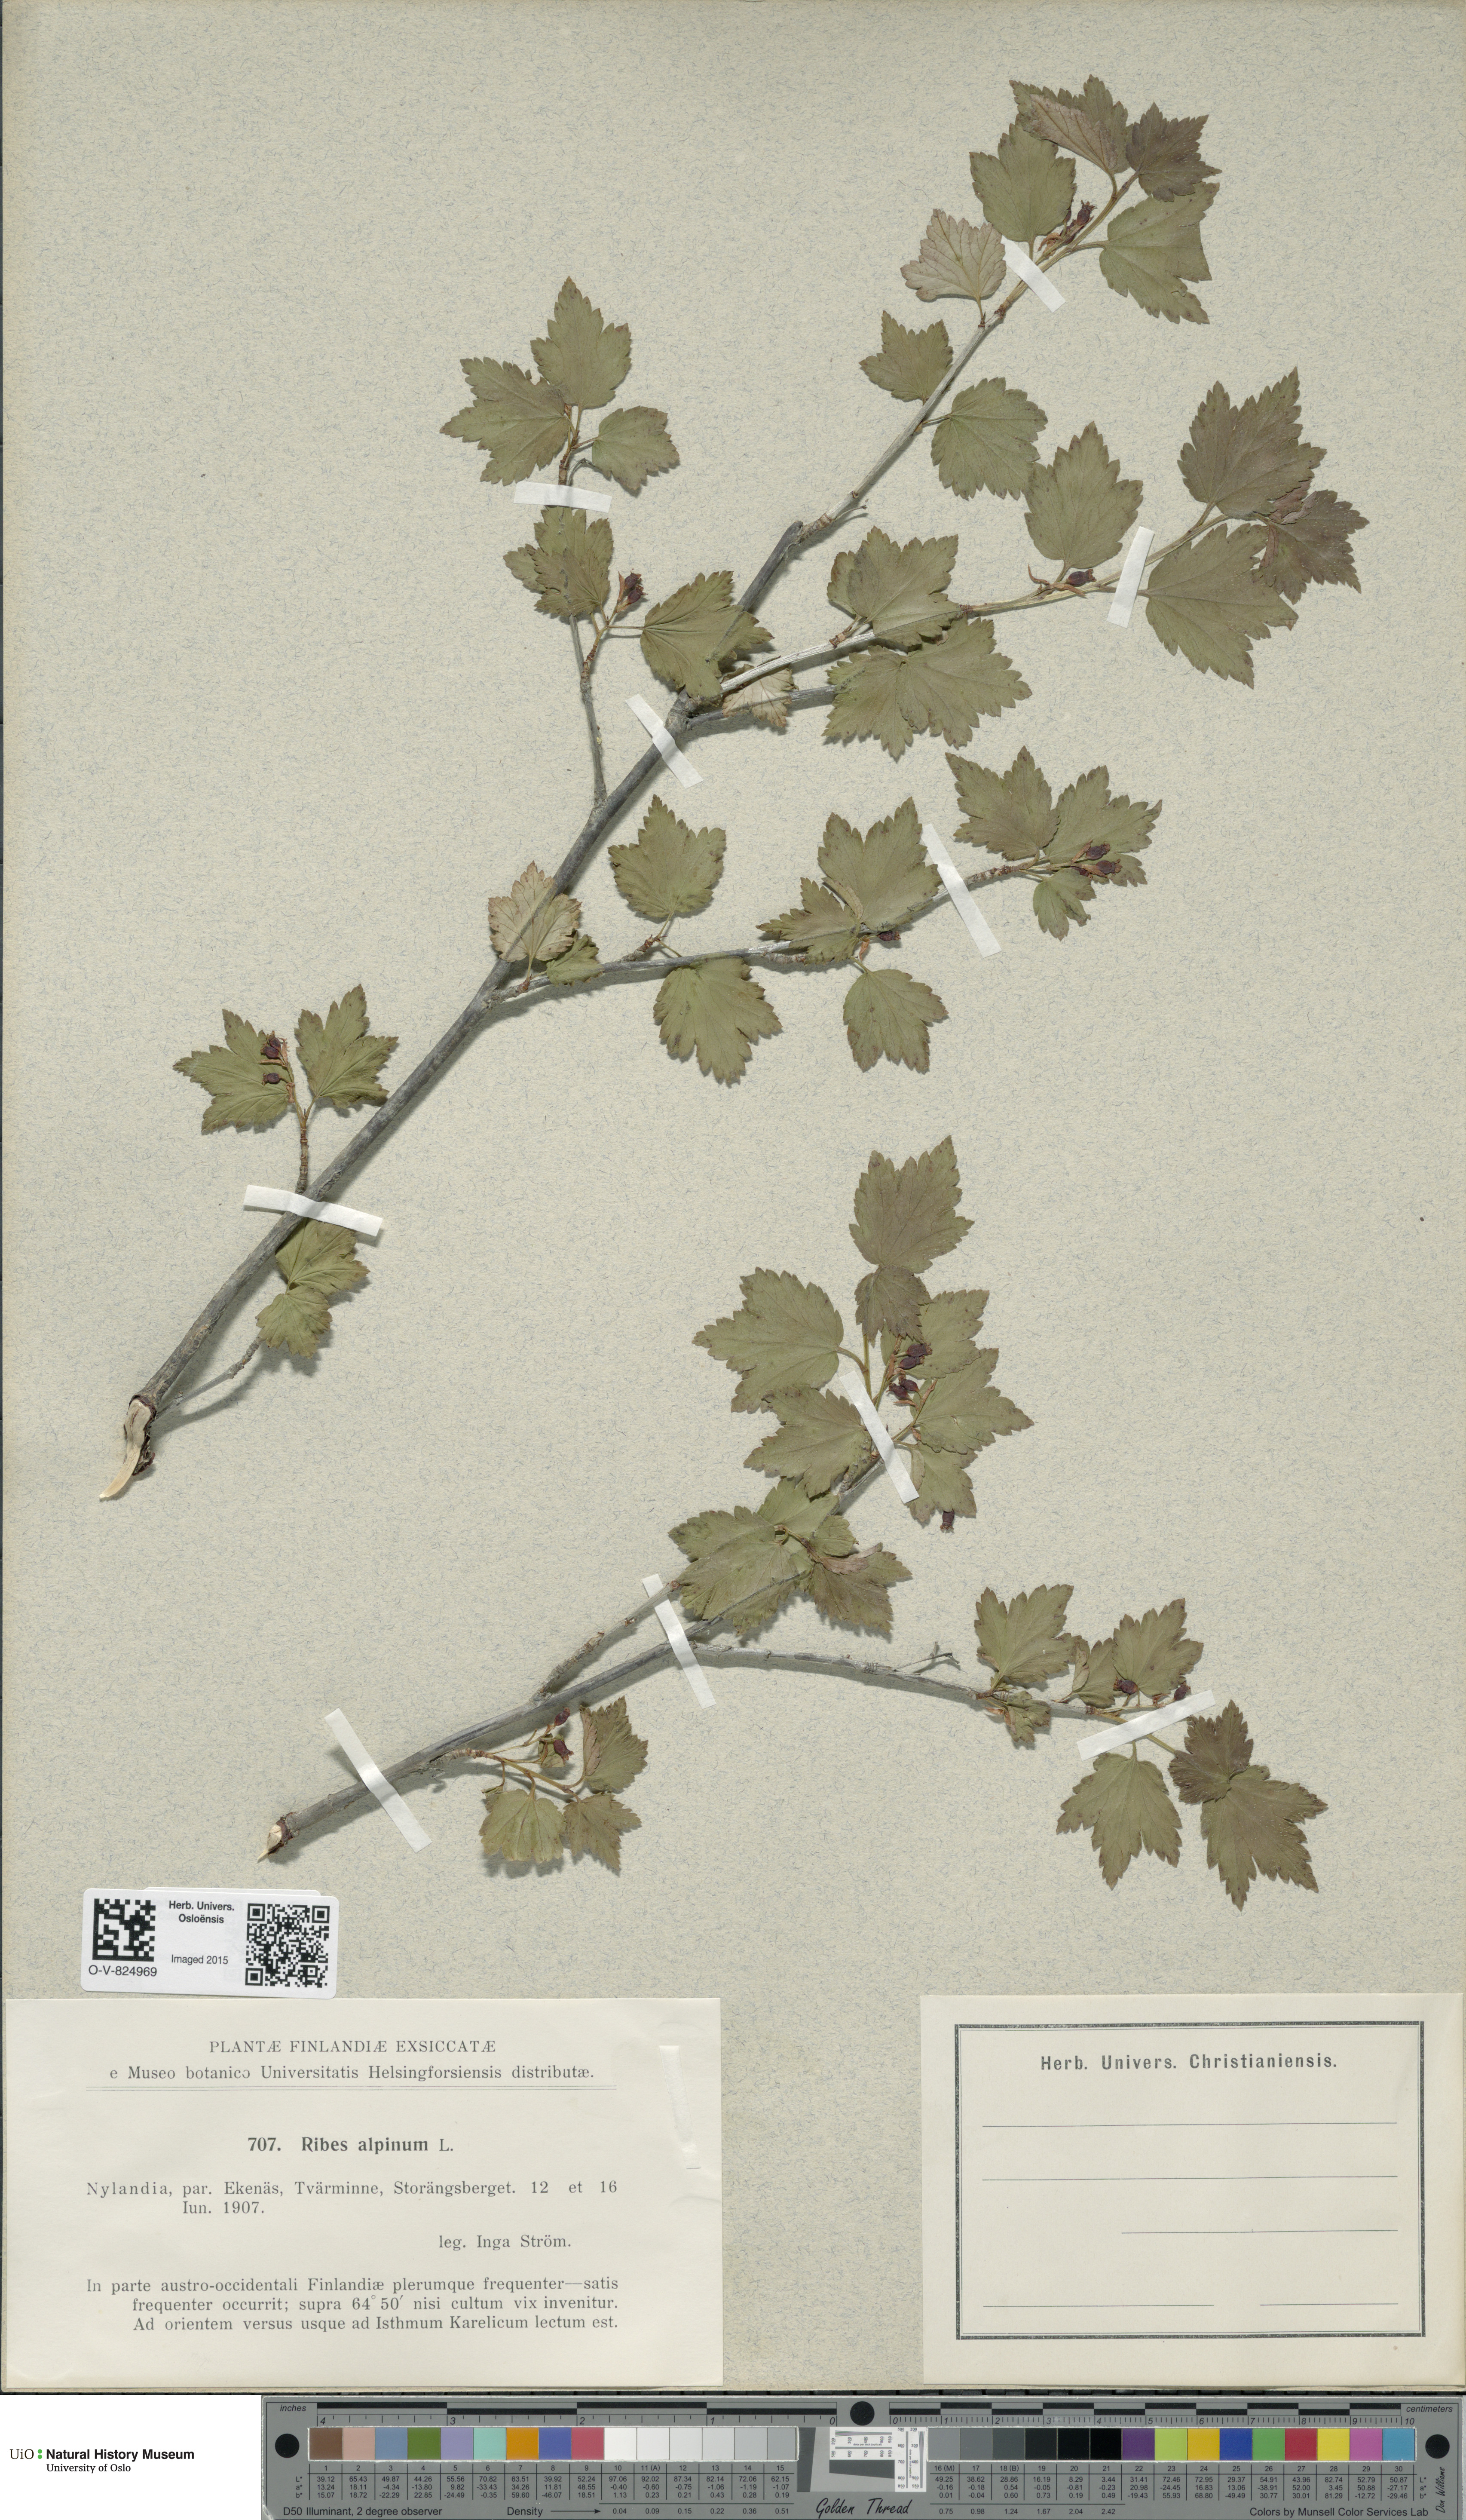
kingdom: Plantae
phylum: Tracheophyta
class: Magnoliopsida
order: Saxifragales
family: Grossulariaceae
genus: Ribes
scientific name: Ribes alpinum
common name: Alpine currant
